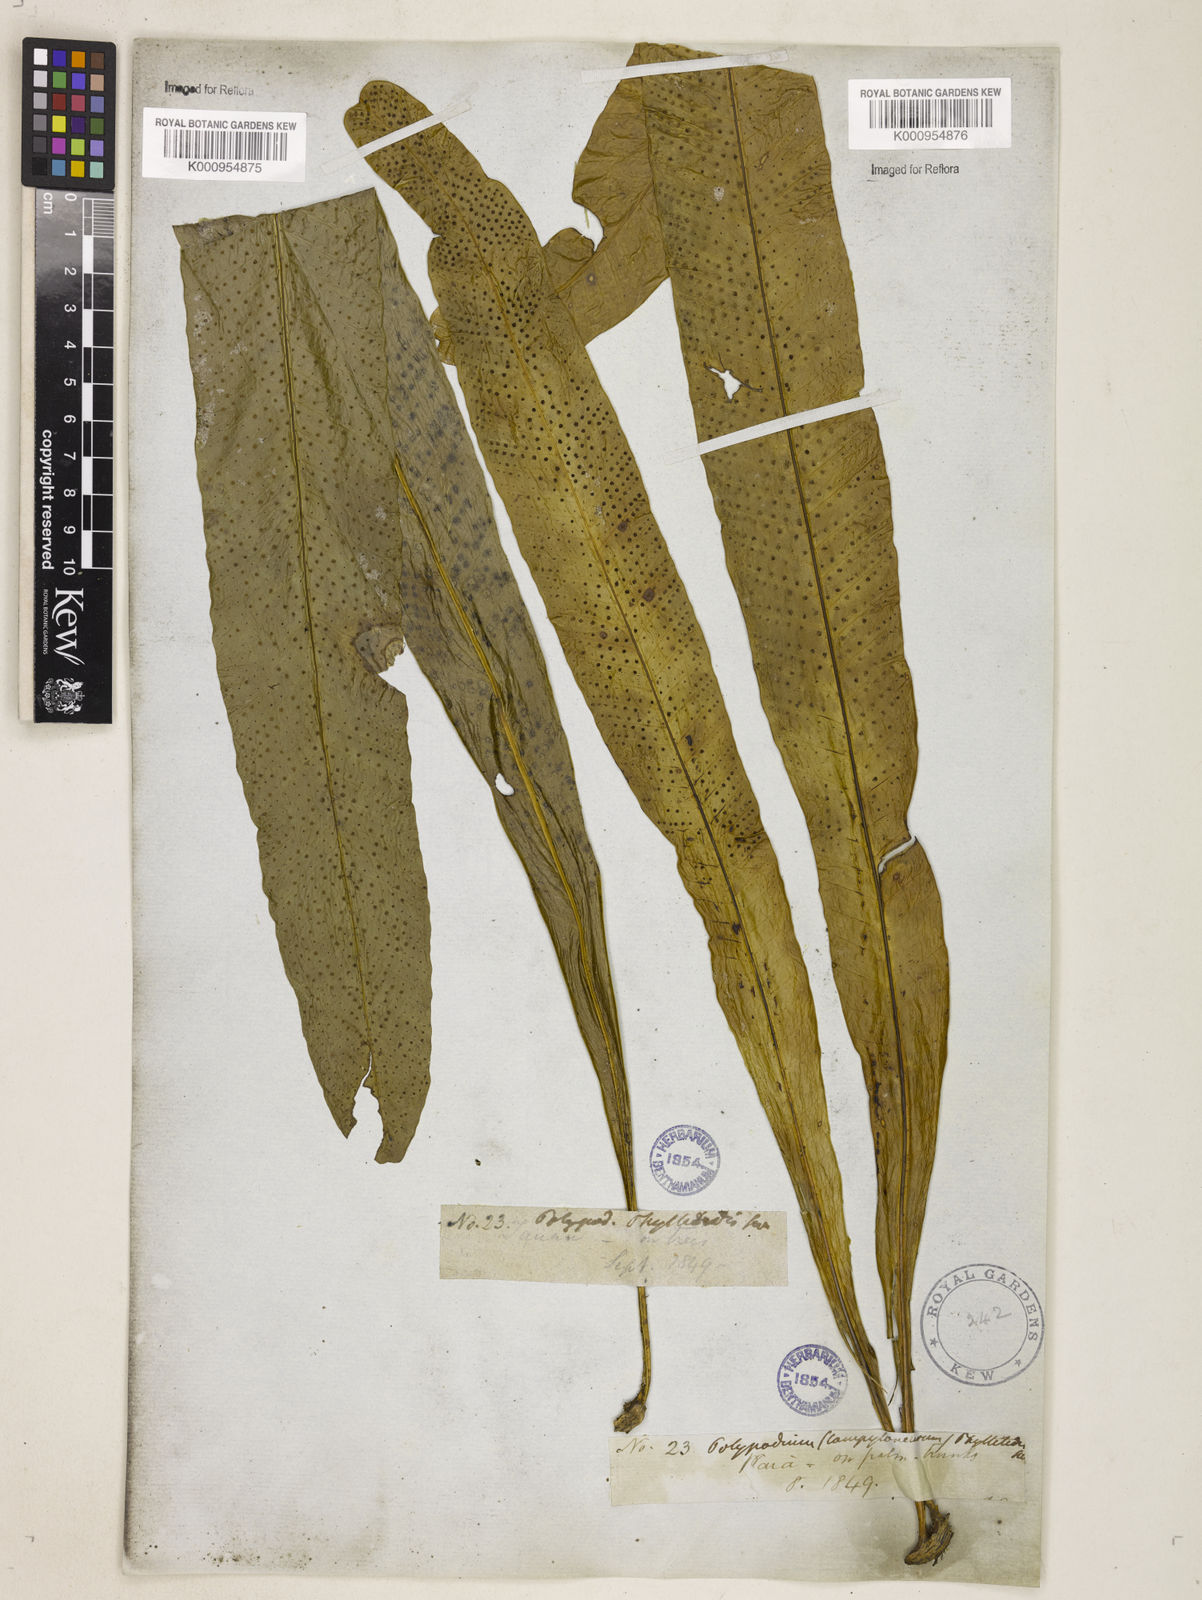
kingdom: Plantae
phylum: Tracheophyta
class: Polypodiopsida
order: Polypodiales
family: Polypodiaceae
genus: Campyloneurum
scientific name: Campyloneurum phyllitidis
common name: Cow-tongue fern
